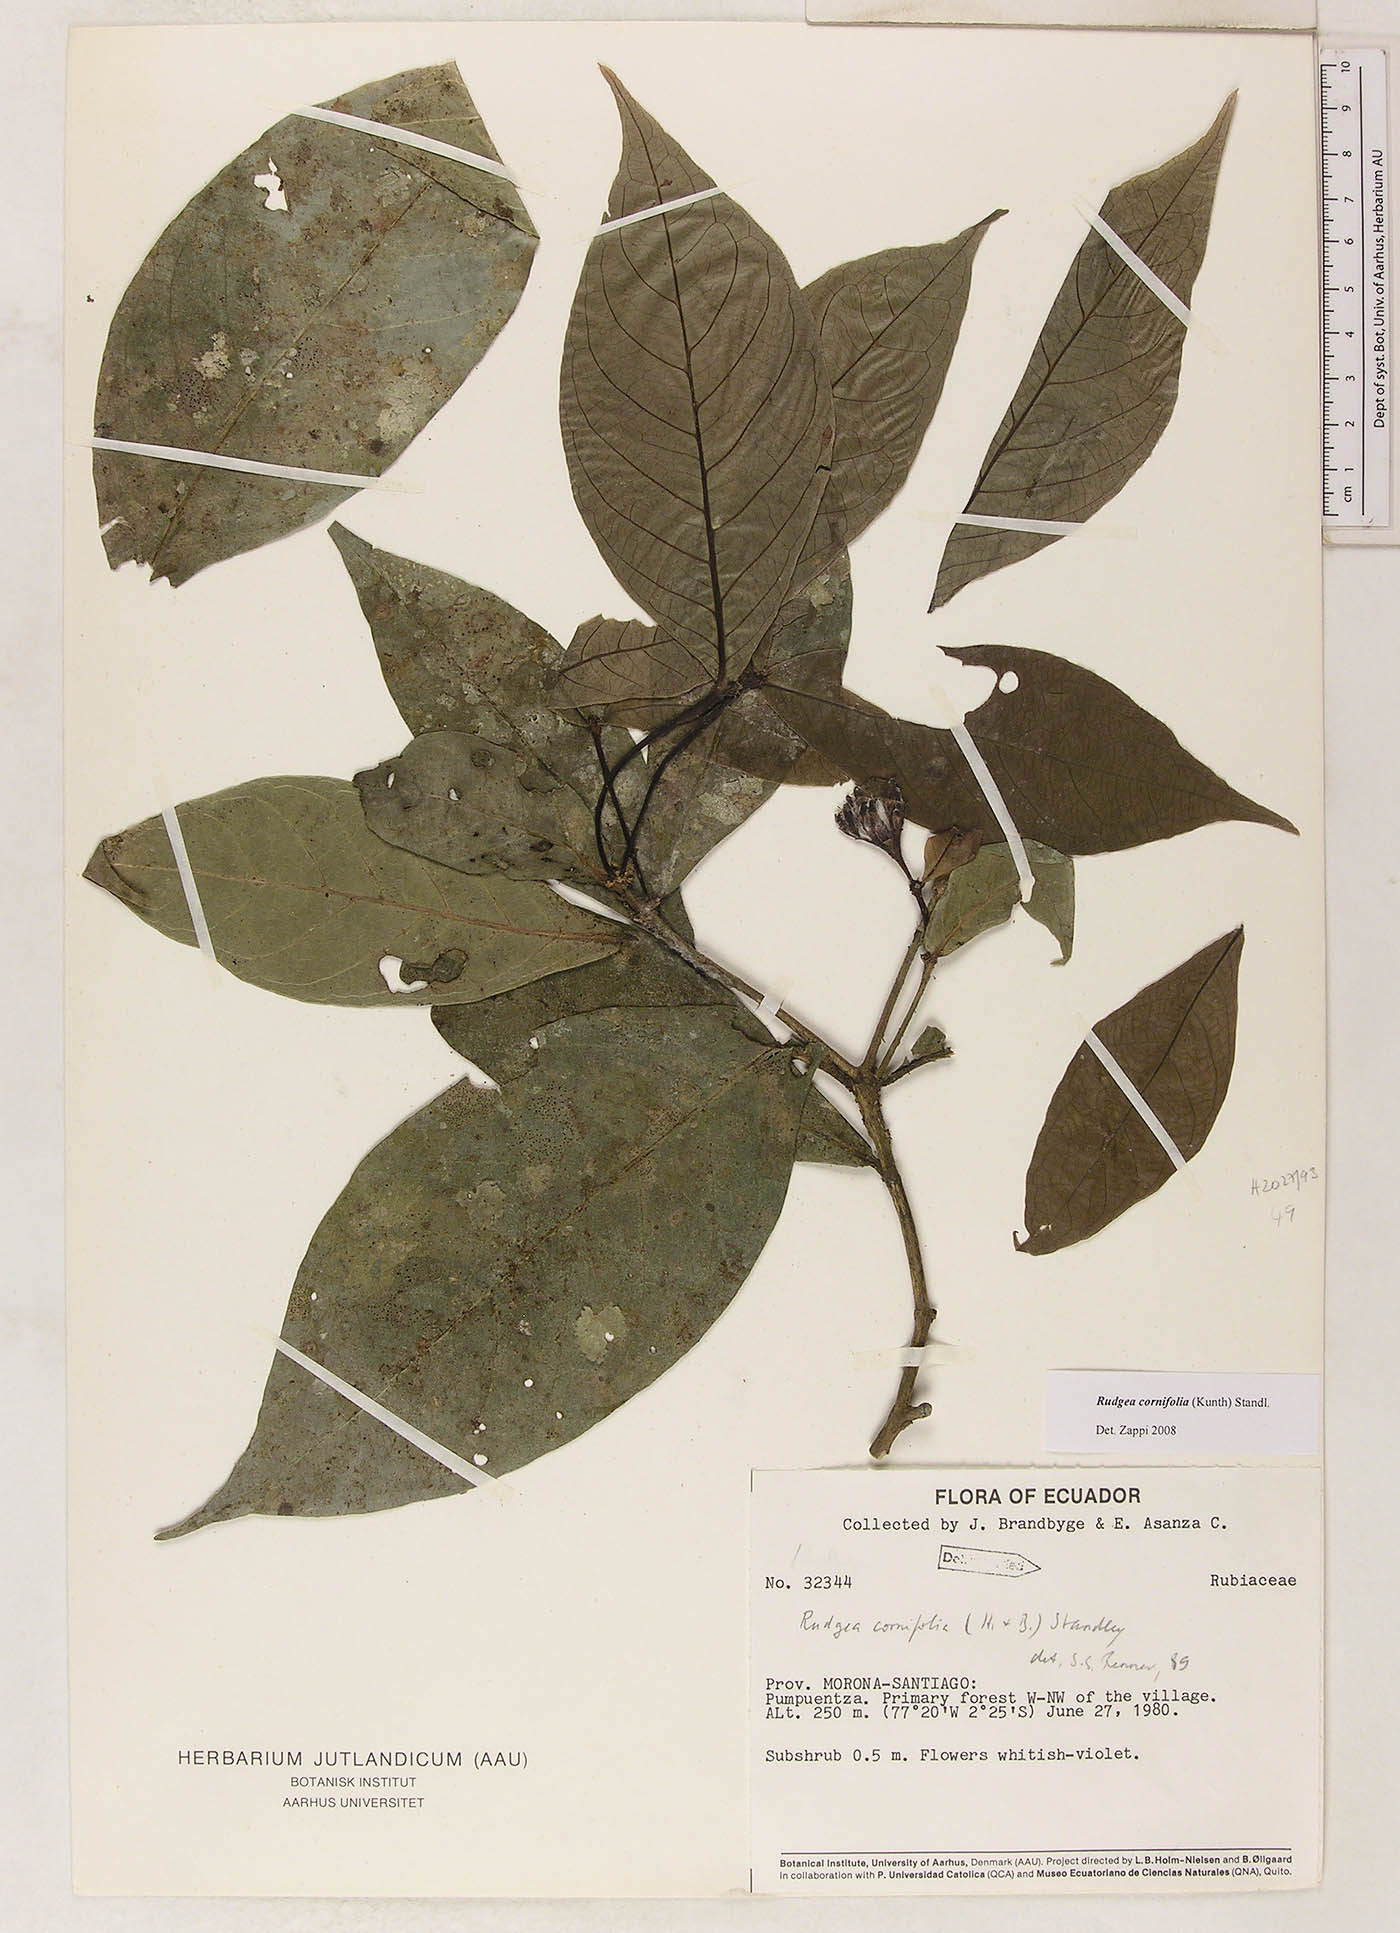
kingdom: Plantae
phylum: Tracheophyta
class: Magnoliopsida
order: Gentianales
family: Rubiaceae
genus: Rudgea
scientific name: Rudgea cornifolia
